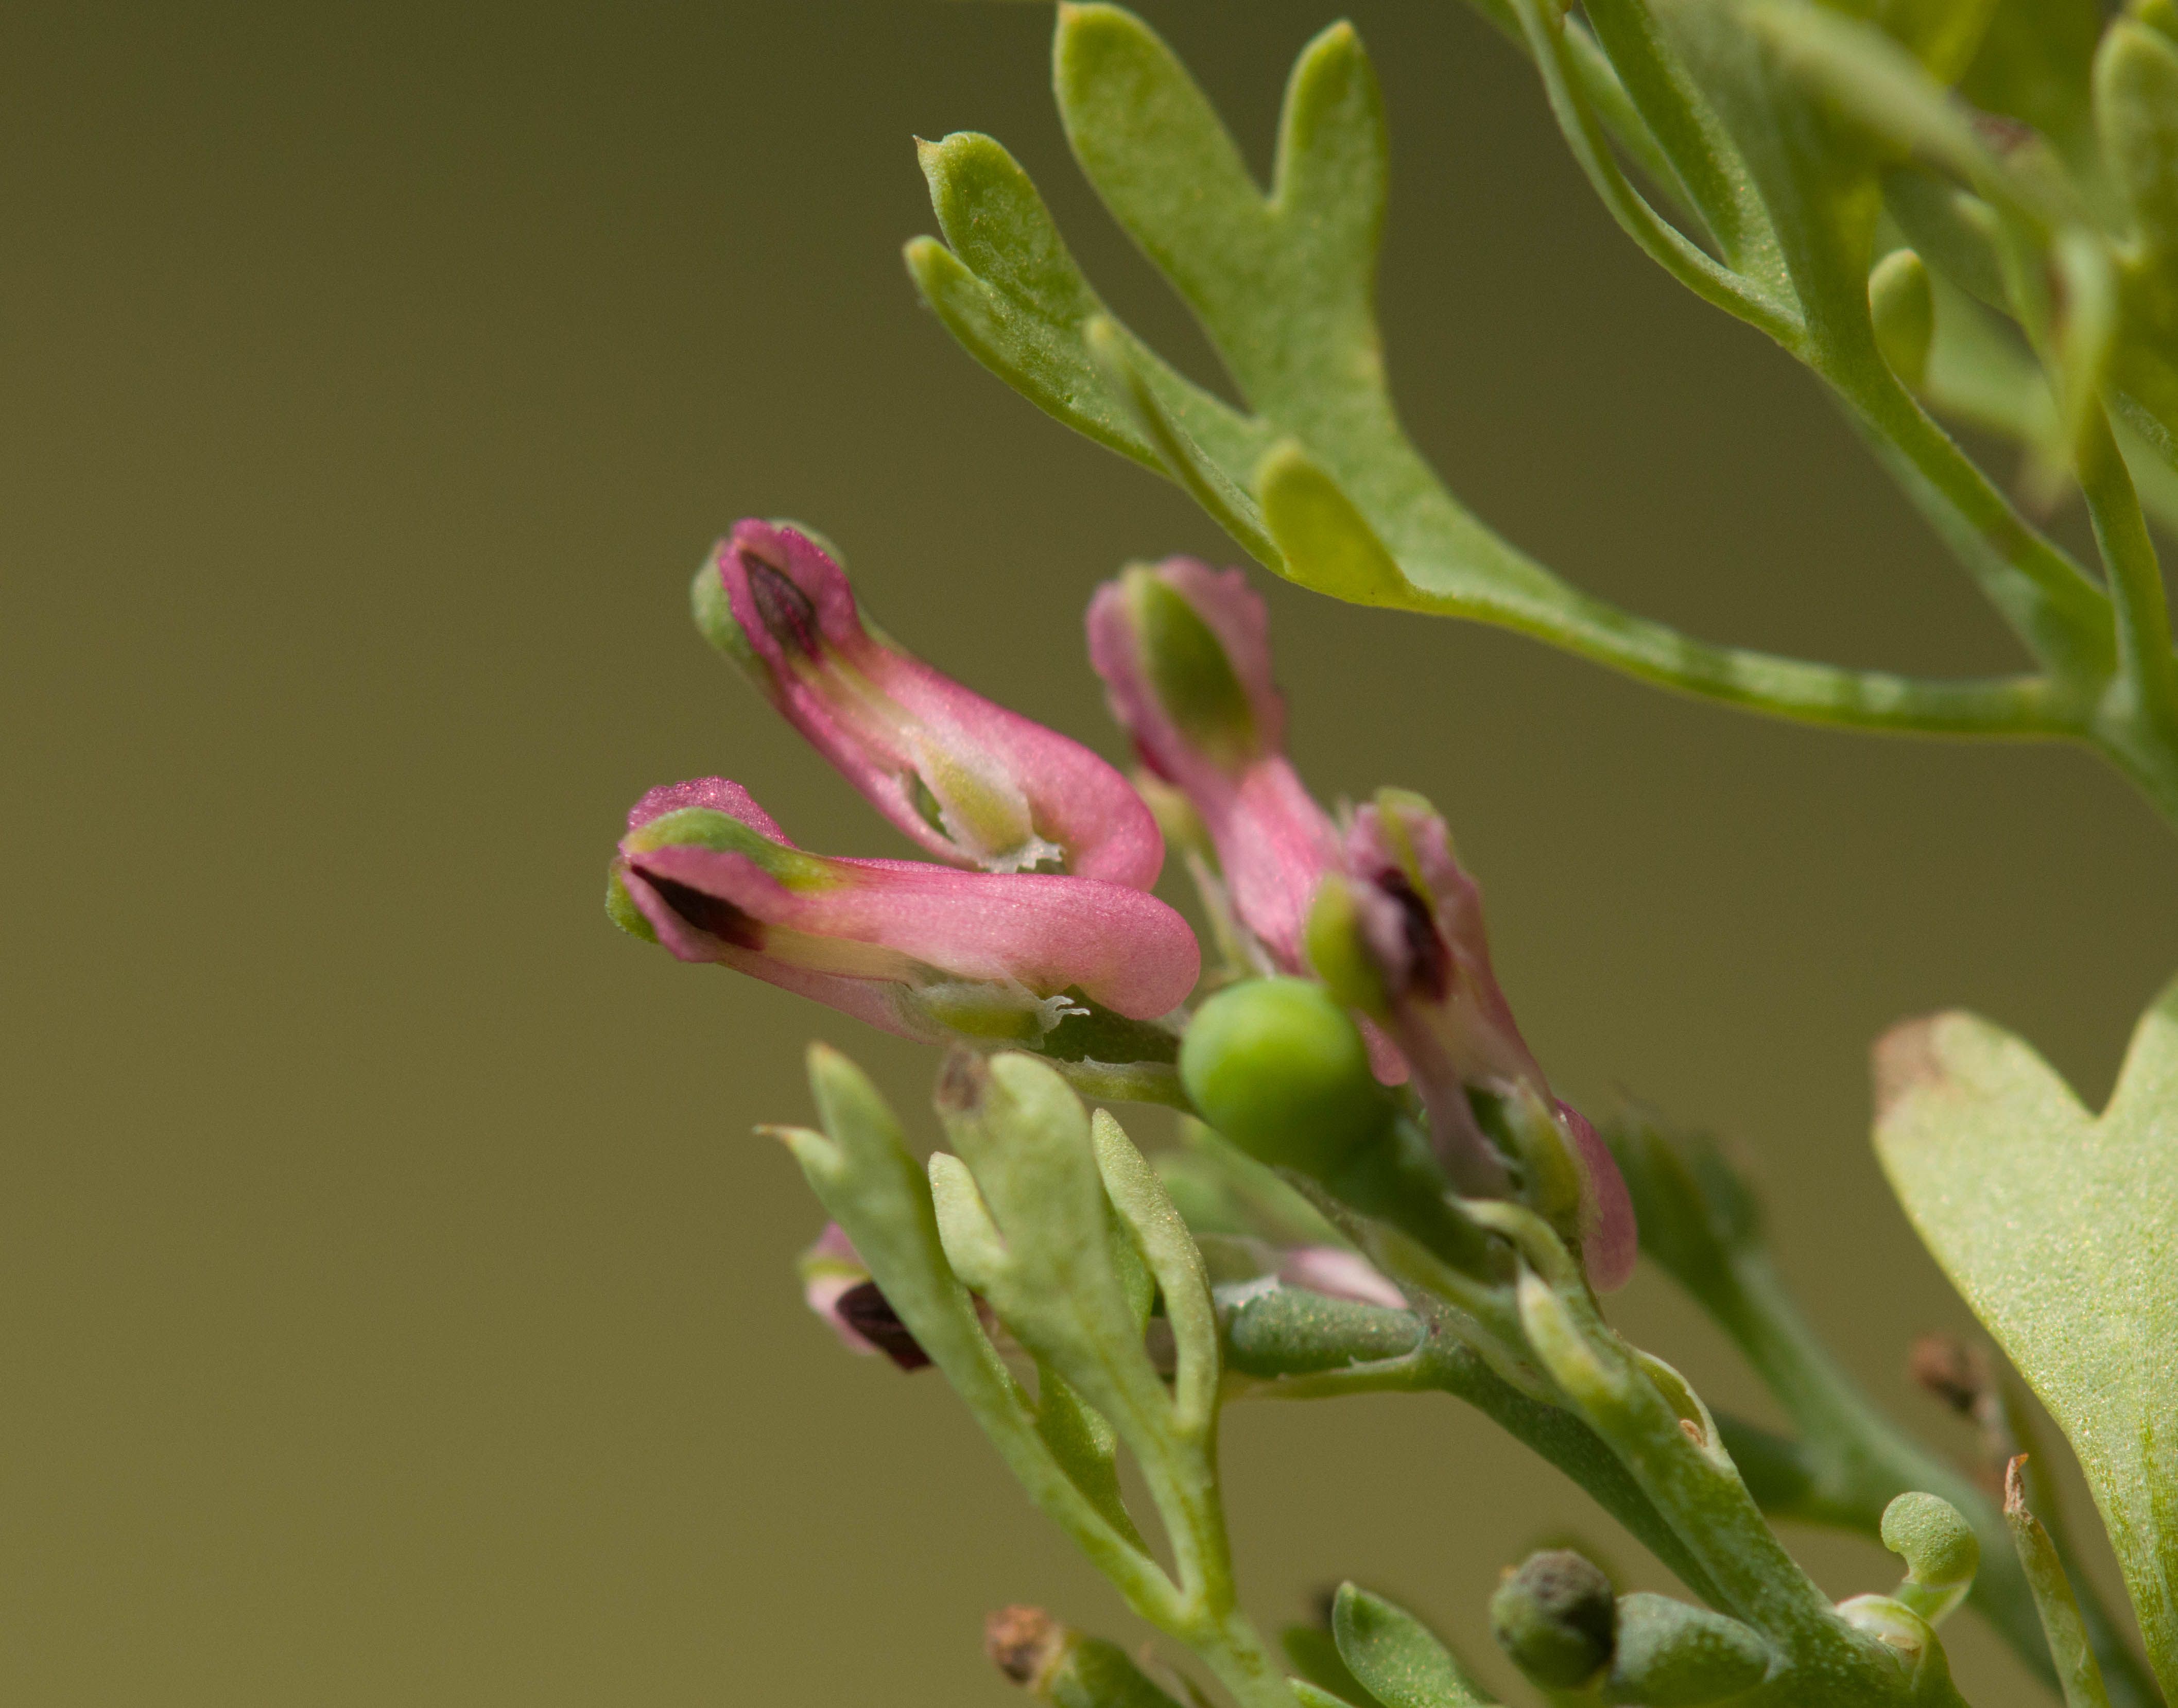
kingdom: Plantae
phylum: Tracheophyta
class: Magnoliopsida
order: Ranunculales
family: Papaveraceae
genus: Fumaria
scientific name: Fumaria officinalis
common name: Common fumitory
